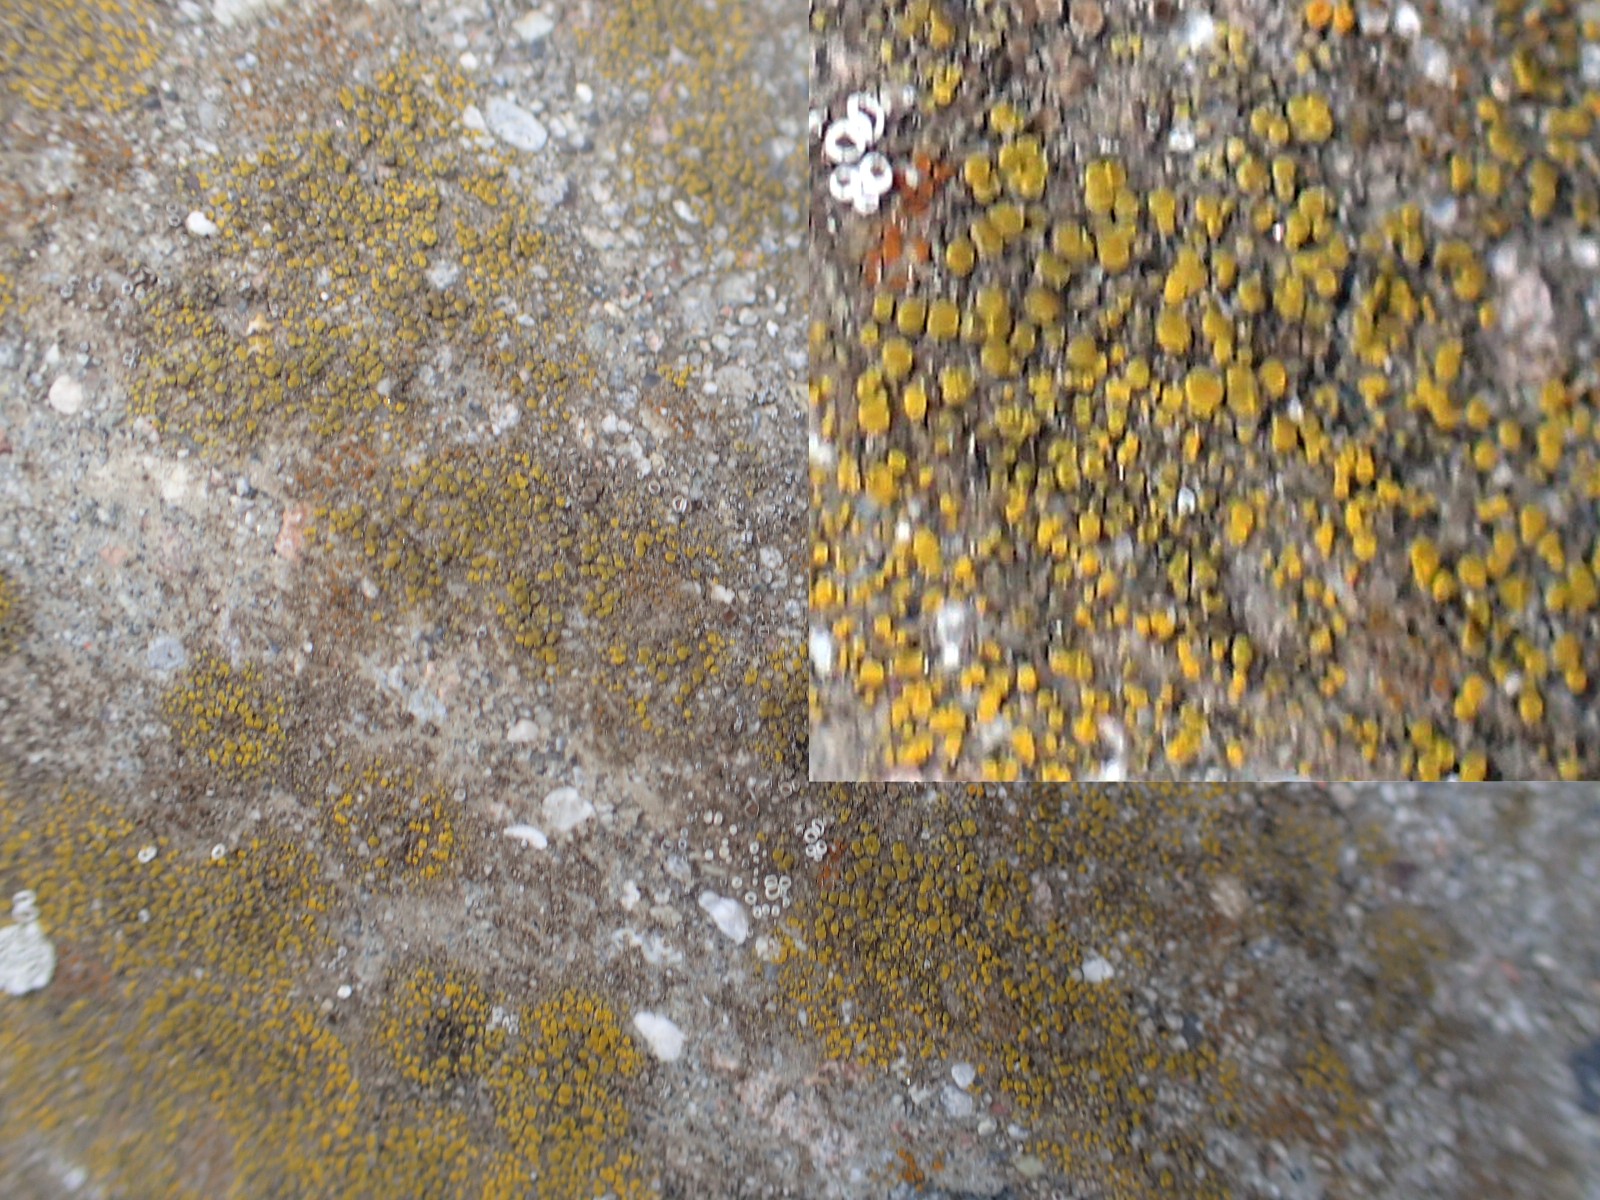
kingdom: Fungi
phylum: Ascomycota
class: Candelariomycetes
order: Candelariales
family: Candelariaceae
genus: Candelariella
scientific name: Candelariella vitellina
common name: almindelig æggeblommelav
